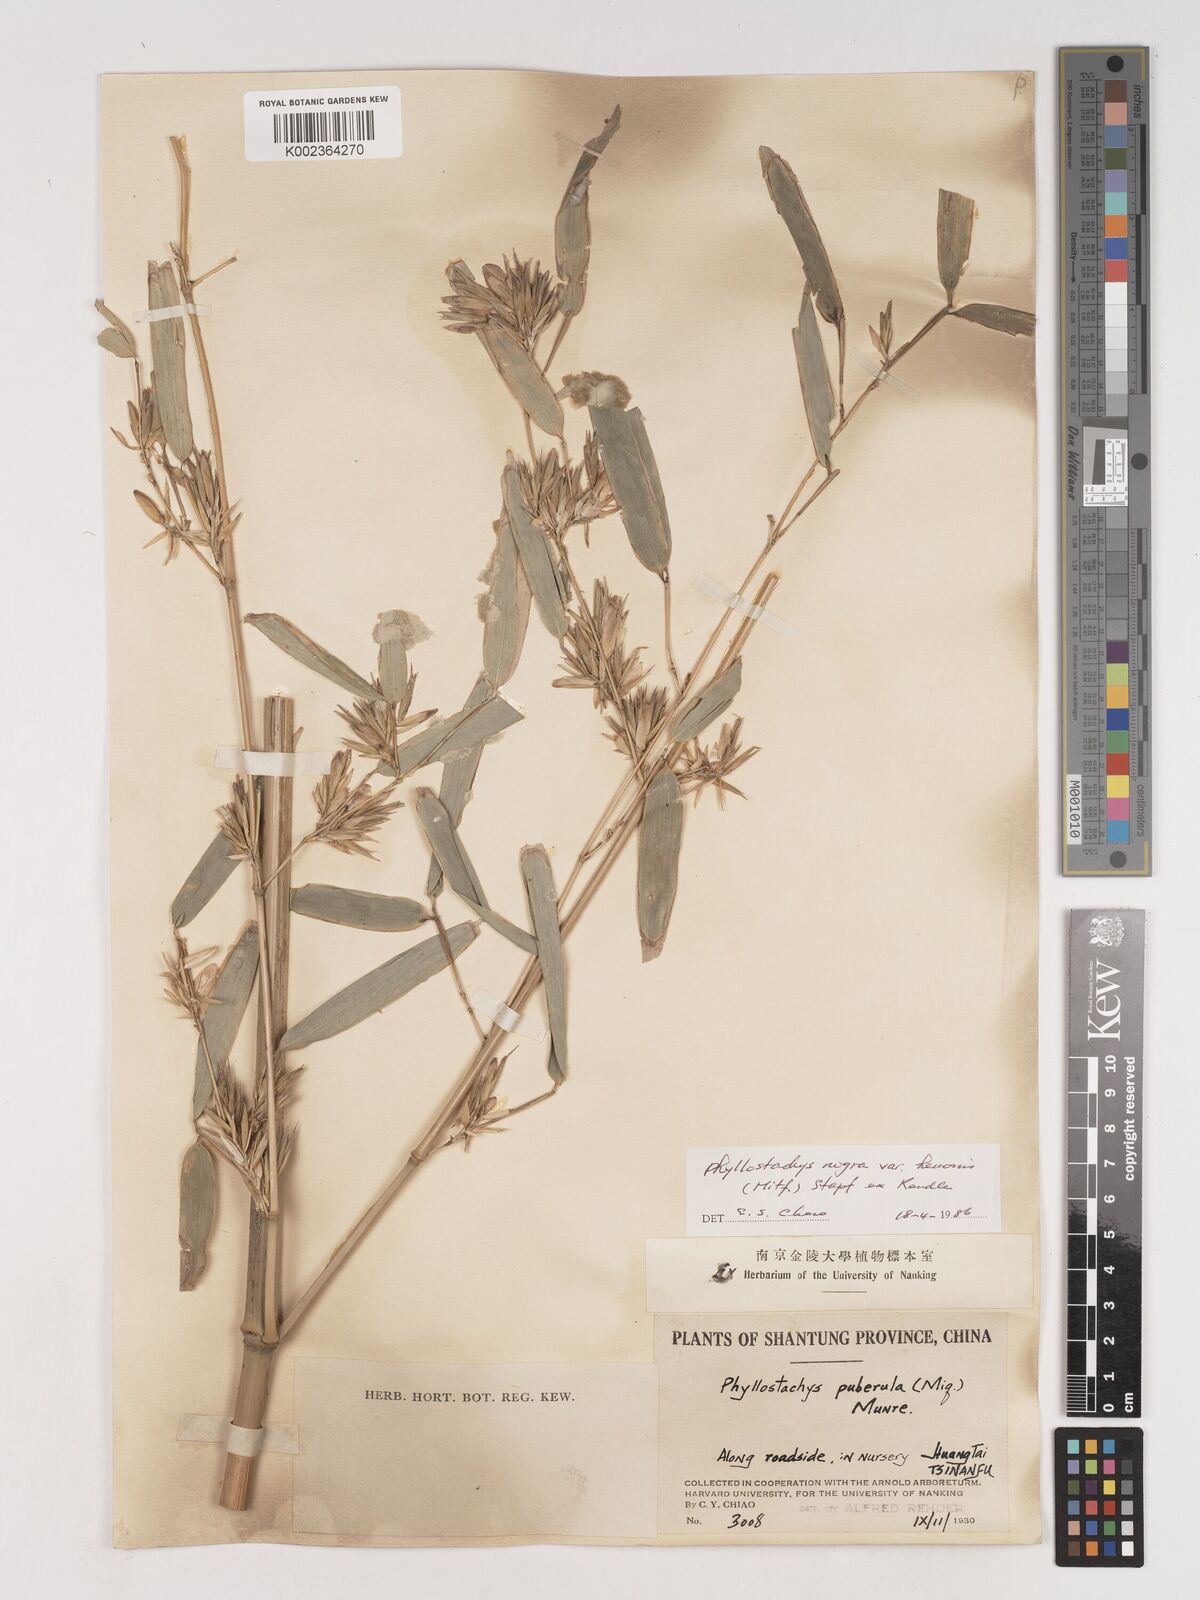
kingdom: Plantae
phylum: Tracheophyta
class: Liliopsida
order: Poales
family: Poaceae
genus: Phyllostachys
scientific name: Phyllostachys nigra
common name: Black bamboo
